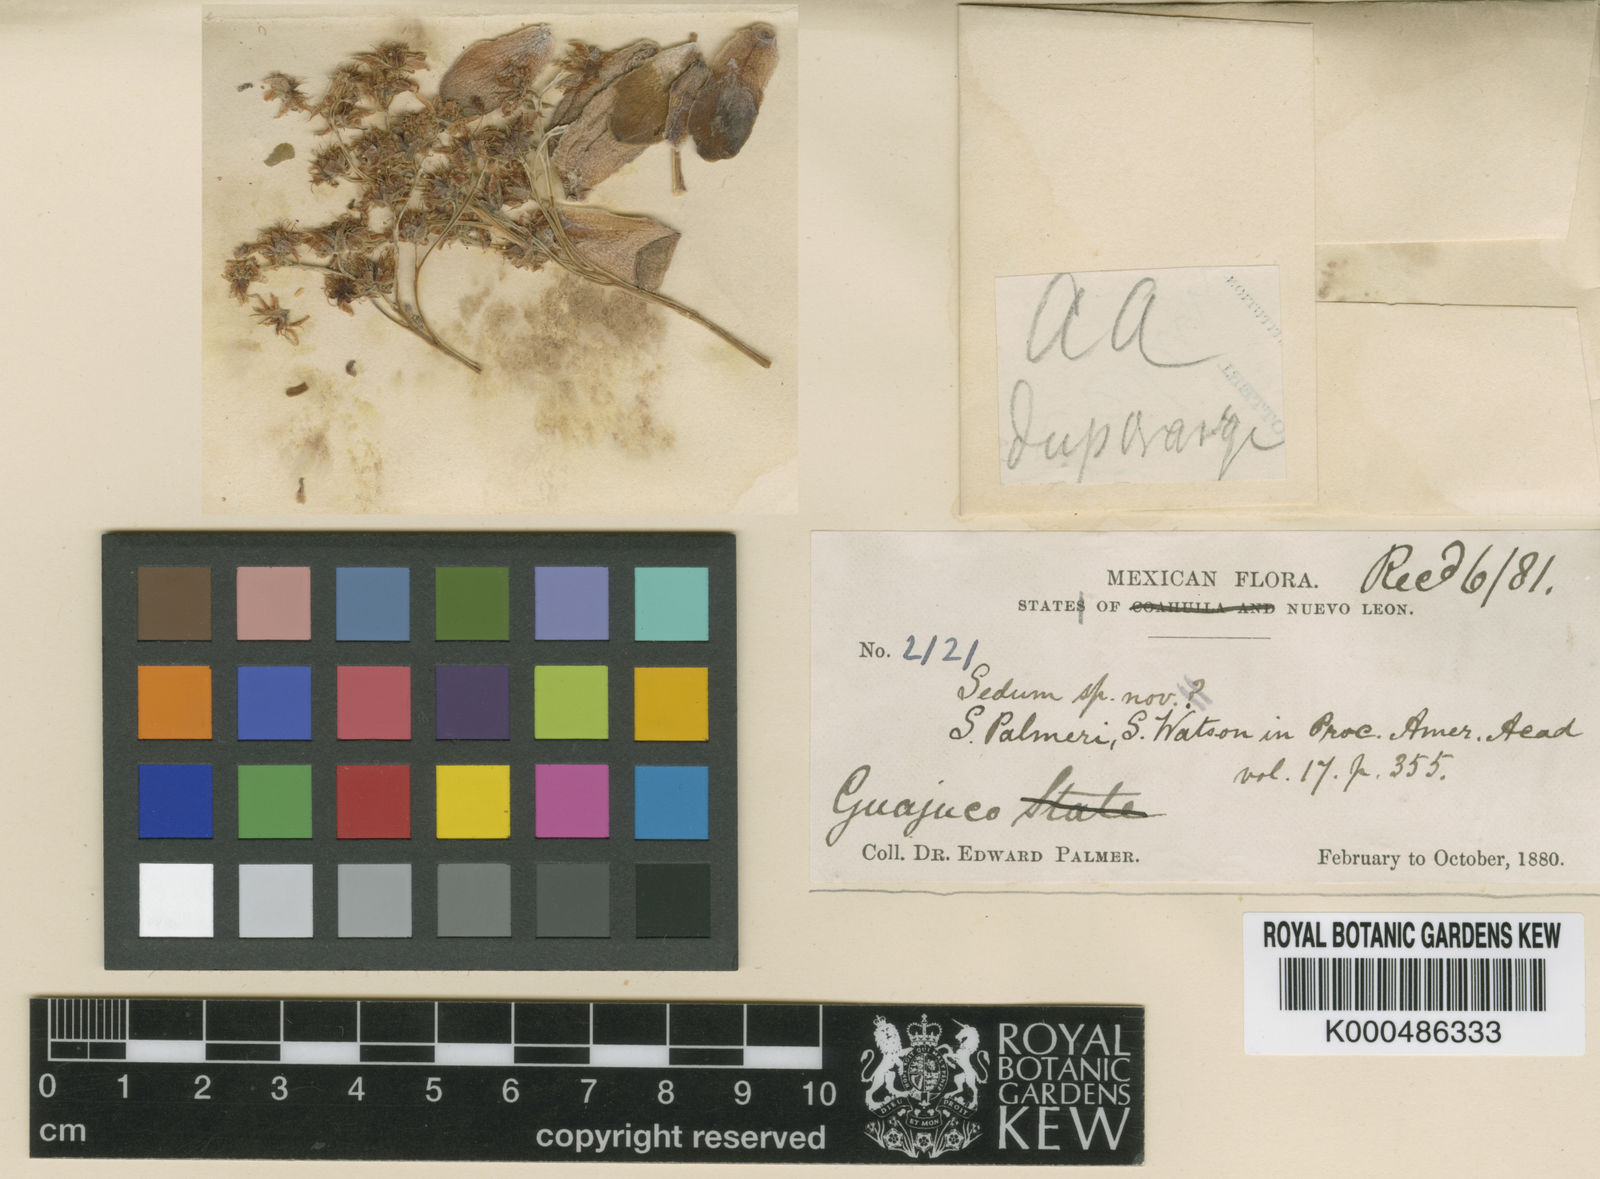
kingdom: Plantae
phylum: Tracheophyta
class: Magnoliopsida
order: Saxifragales
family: Crassulaceae
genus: Sedum
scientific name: Sedum palmeri
